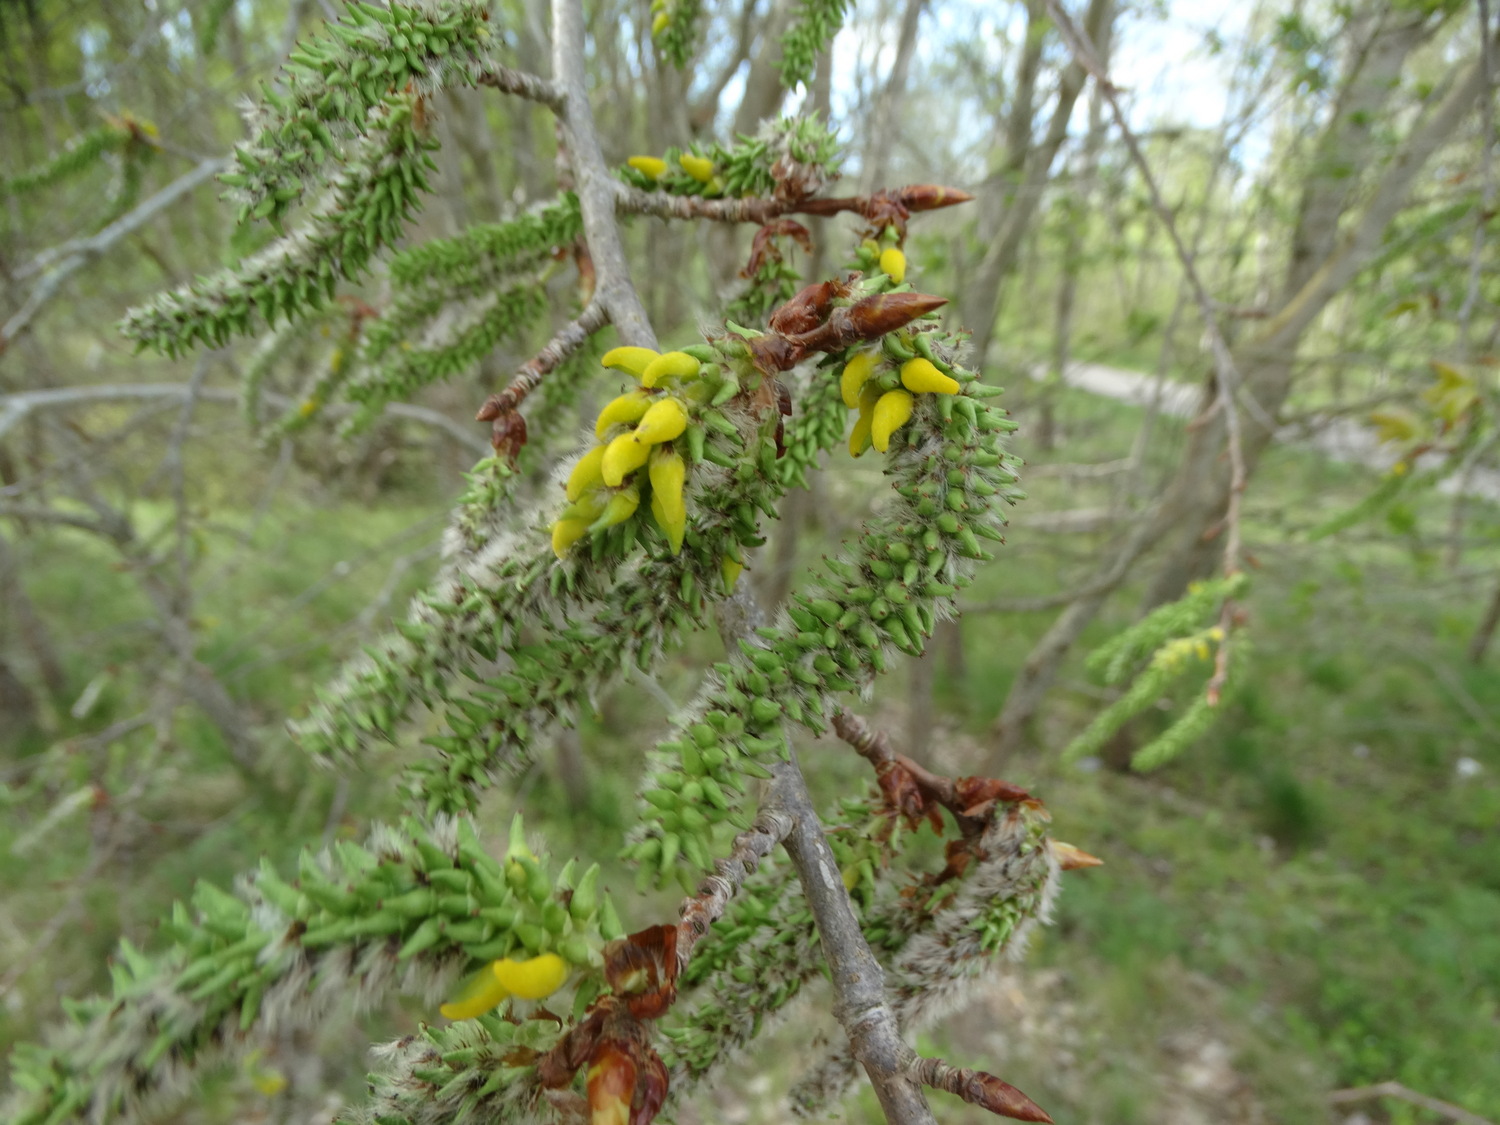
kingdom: Fungi
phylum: Ascomycota
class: Taphrinomycetes
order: Taphrinales
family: Taphrinaceae
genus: Taphrina
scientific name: Taphrina johansonii
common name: Aspen tongue
